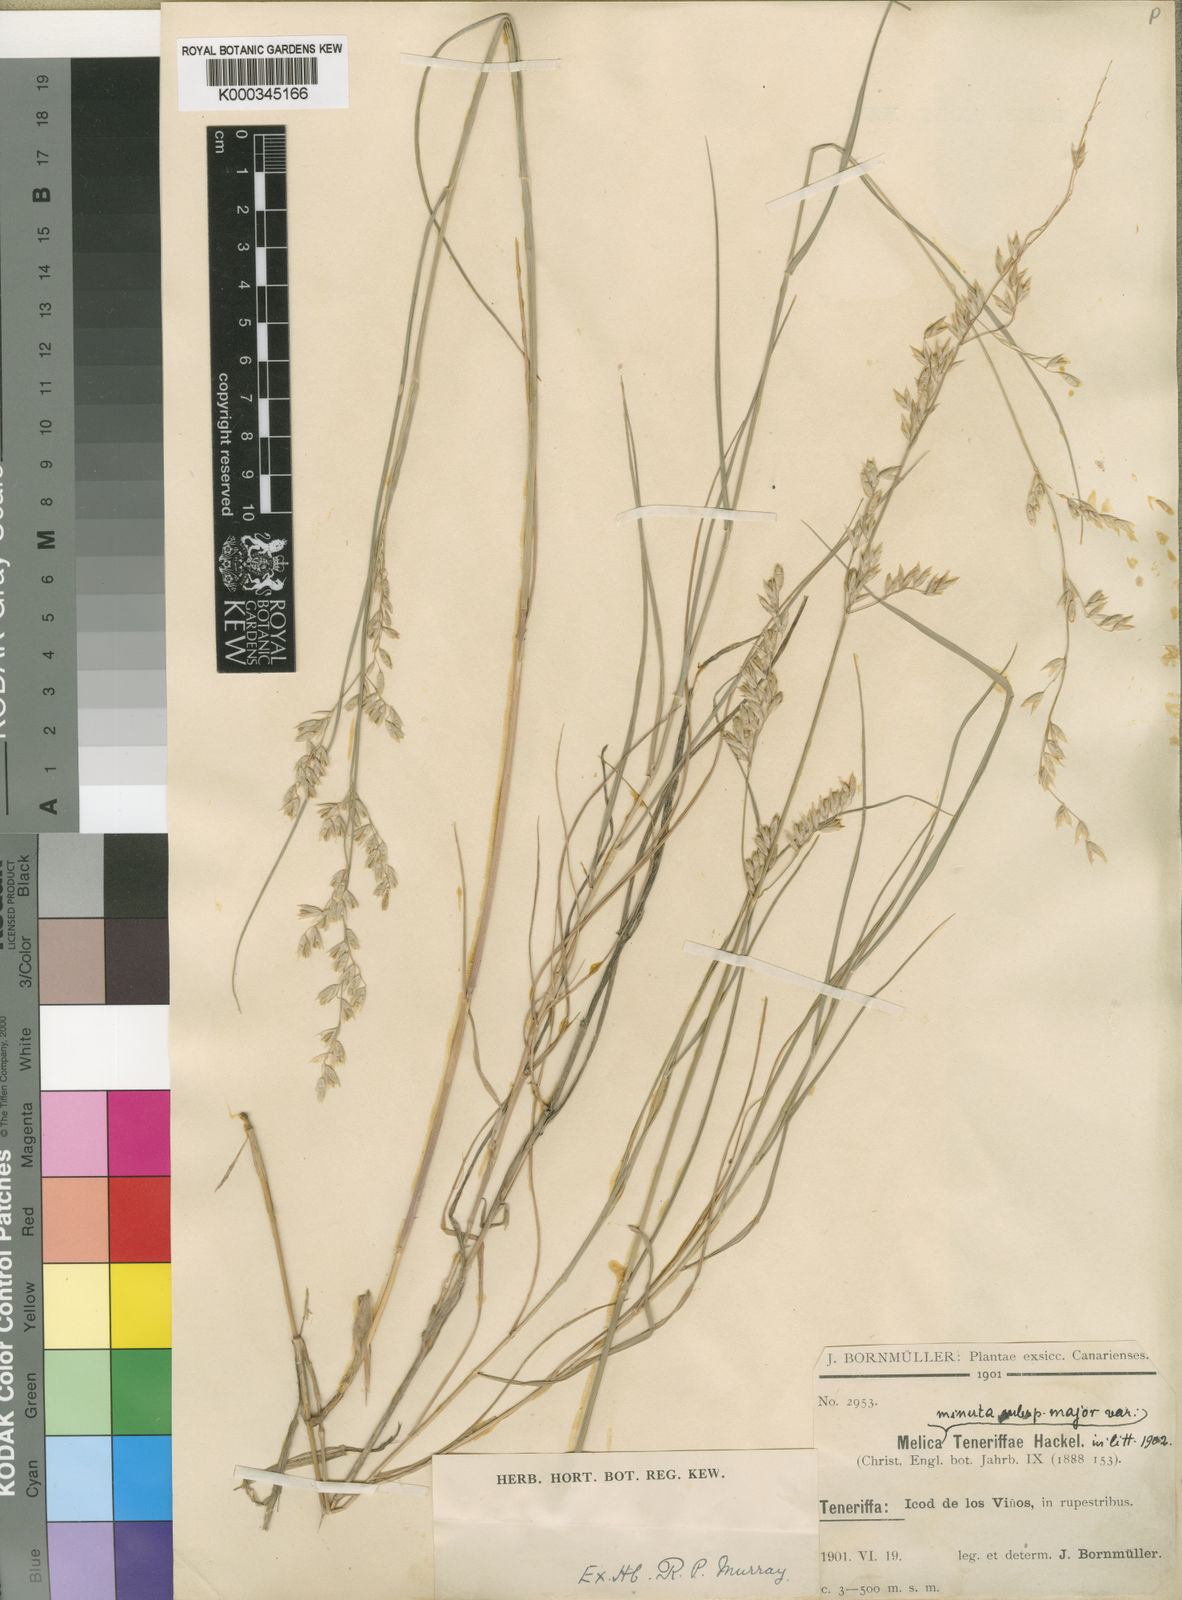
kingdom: Plantae
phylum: Tracheophyta
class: Liliopsida
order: Poales
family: Poaceae
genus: Melica
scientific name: Melica minuta
